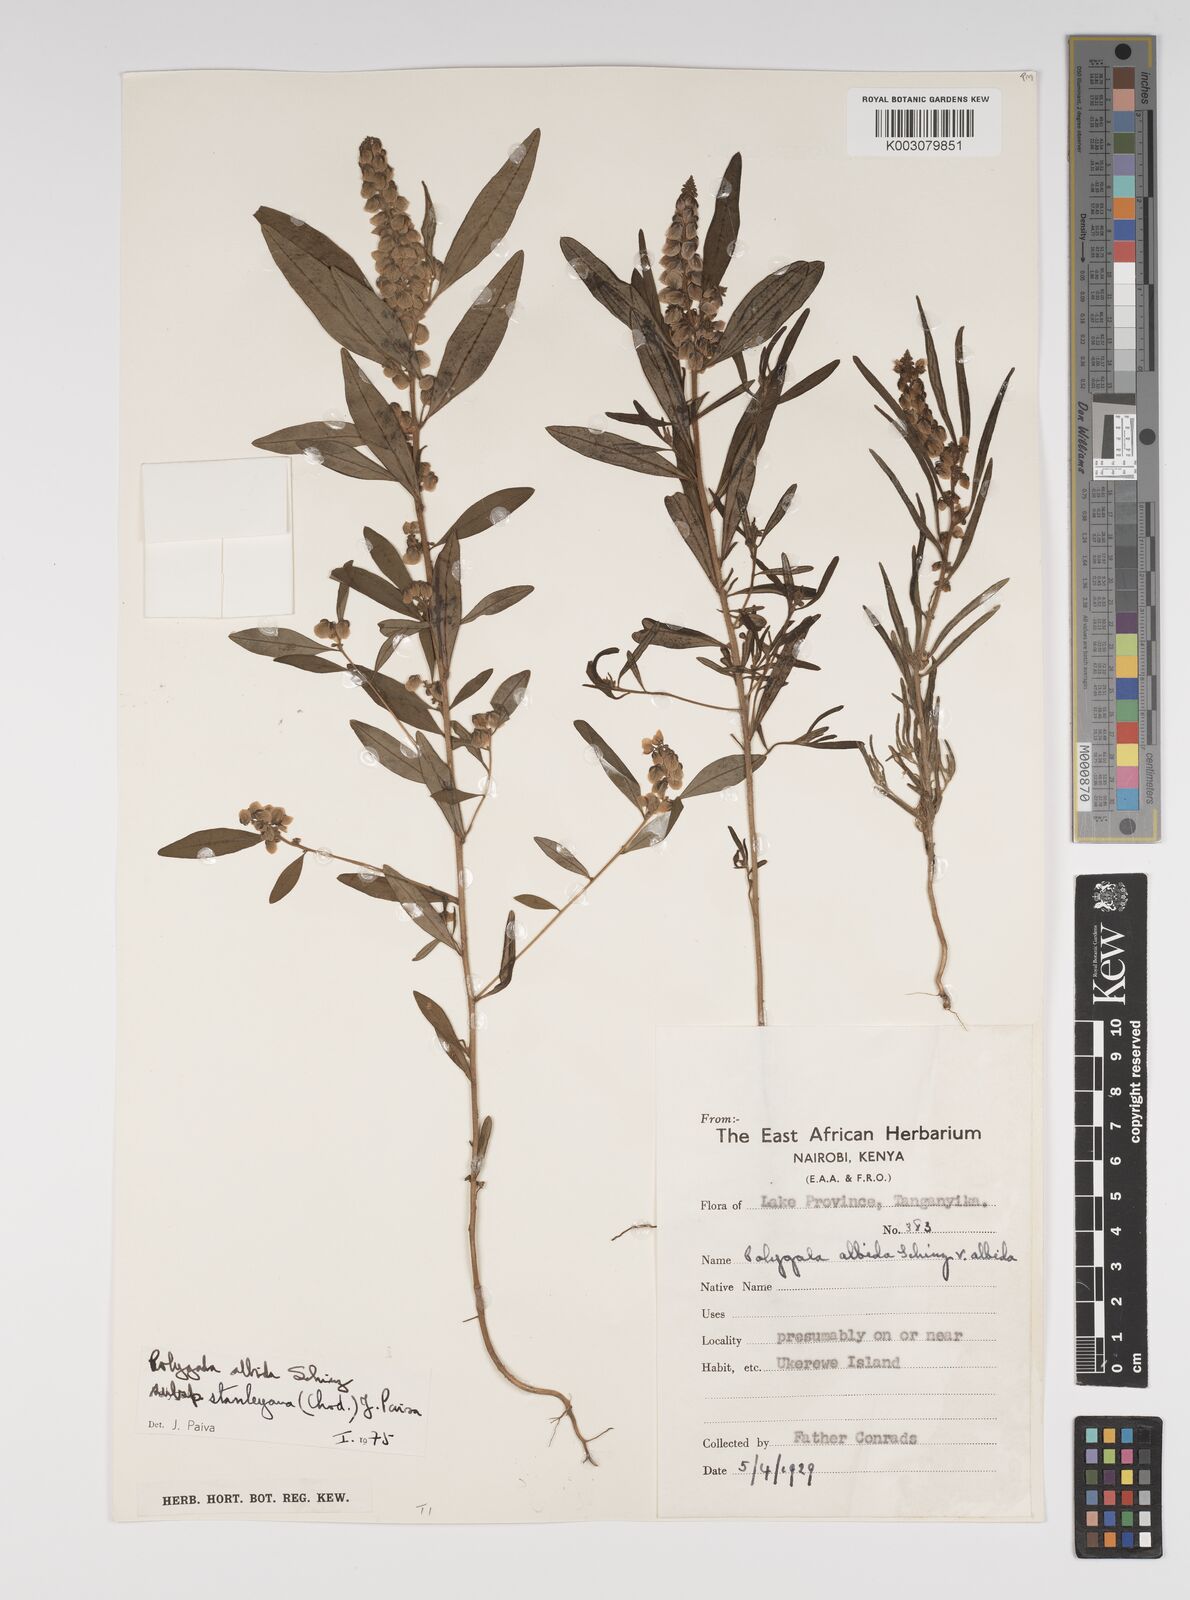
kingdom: Plantae
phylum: Tracheophyta
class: Magnoliopsida
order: Fabales
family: Polygalaceae
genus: Polygala
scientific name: Polygala albida
